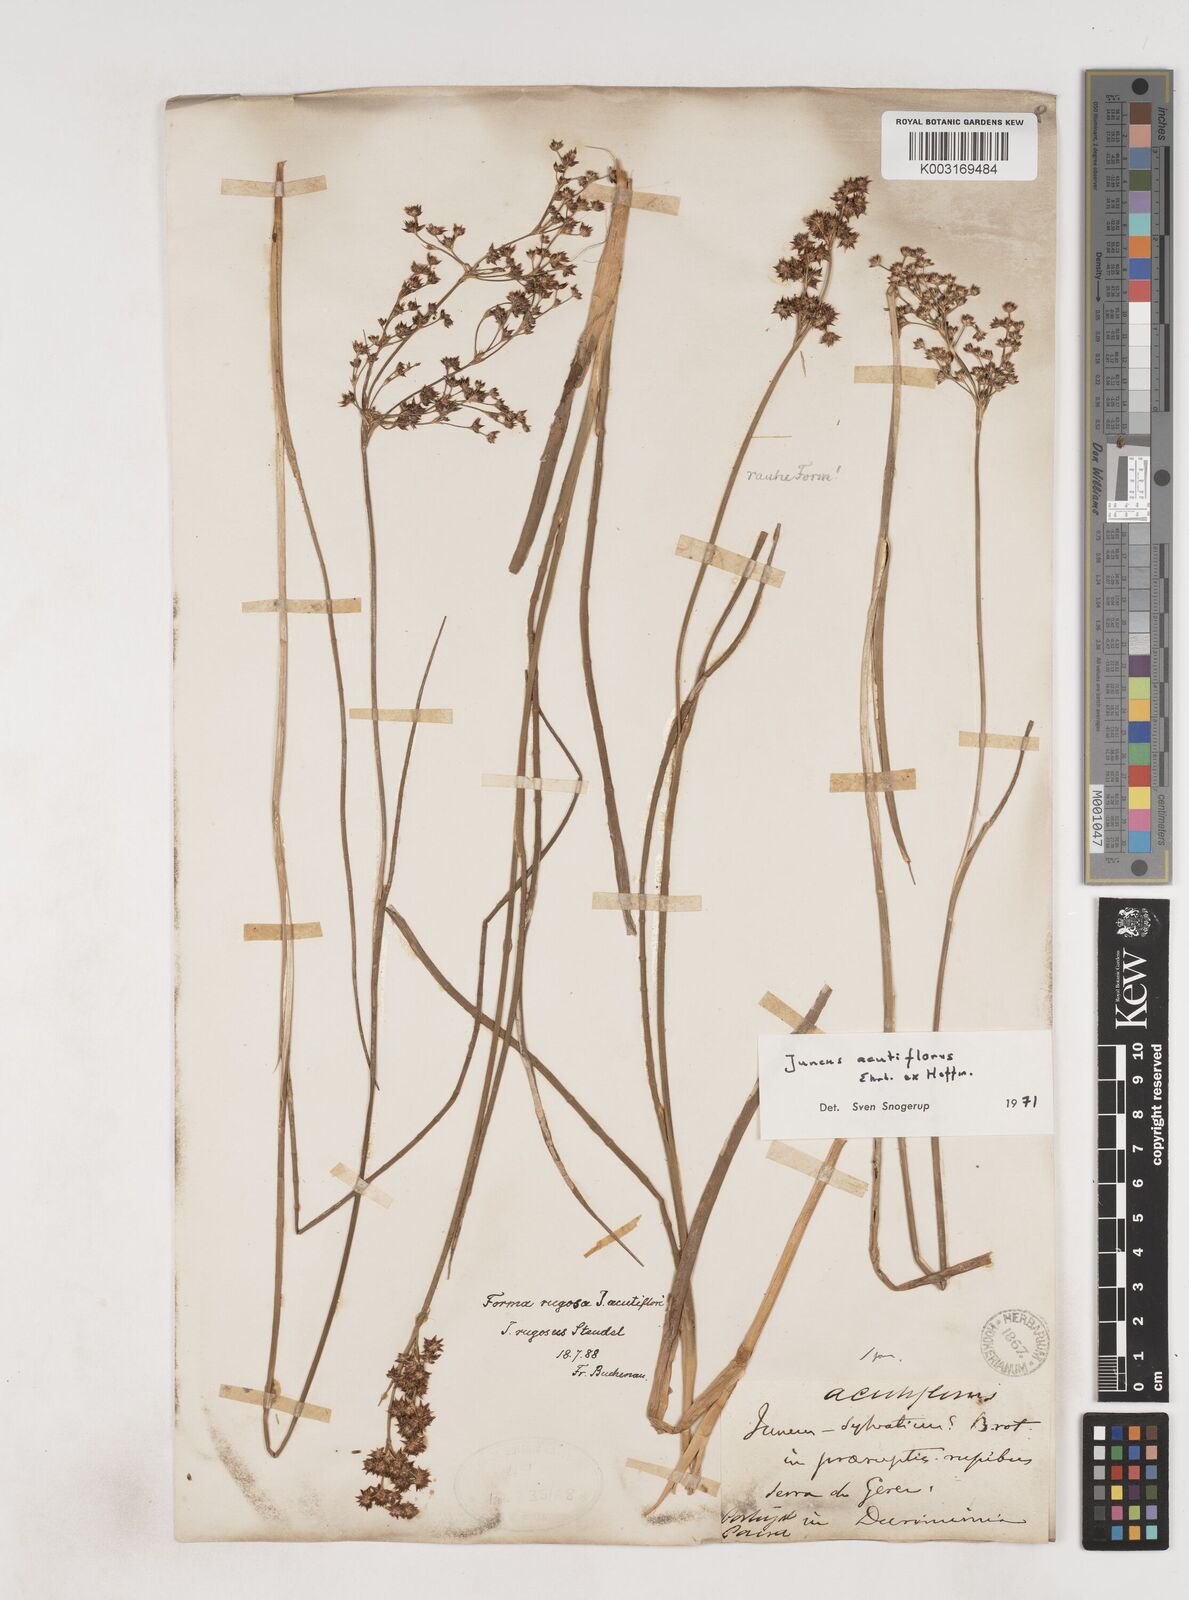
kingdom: Plantae
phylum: Tracheophyta
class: Liliopsida
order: Poales
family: Juncaceae
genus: Juncus
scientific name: Juncus acutiflorus
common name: Sharp-flowered rush
